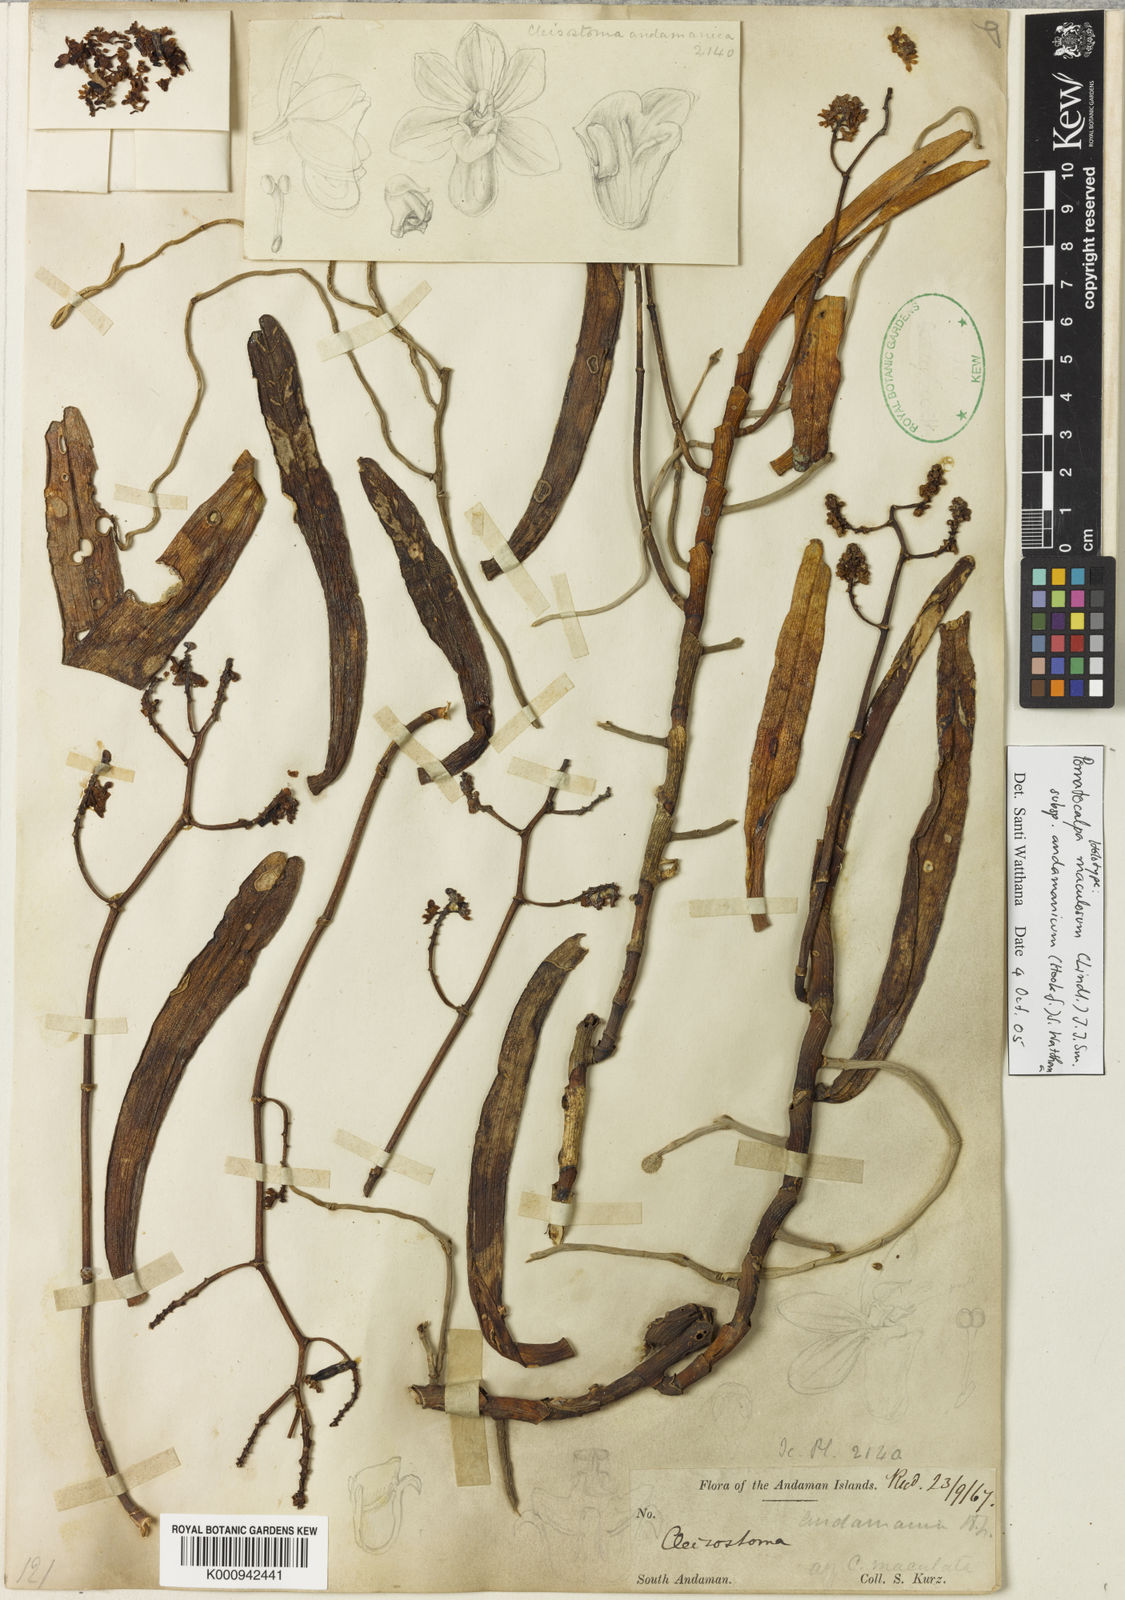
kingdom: Plantae
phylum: Tracheophyta
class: Liliopsida
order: Asparagales
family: Orchidaceae
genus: Pomatocalpa
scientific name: Pomatocalpa maculosum
